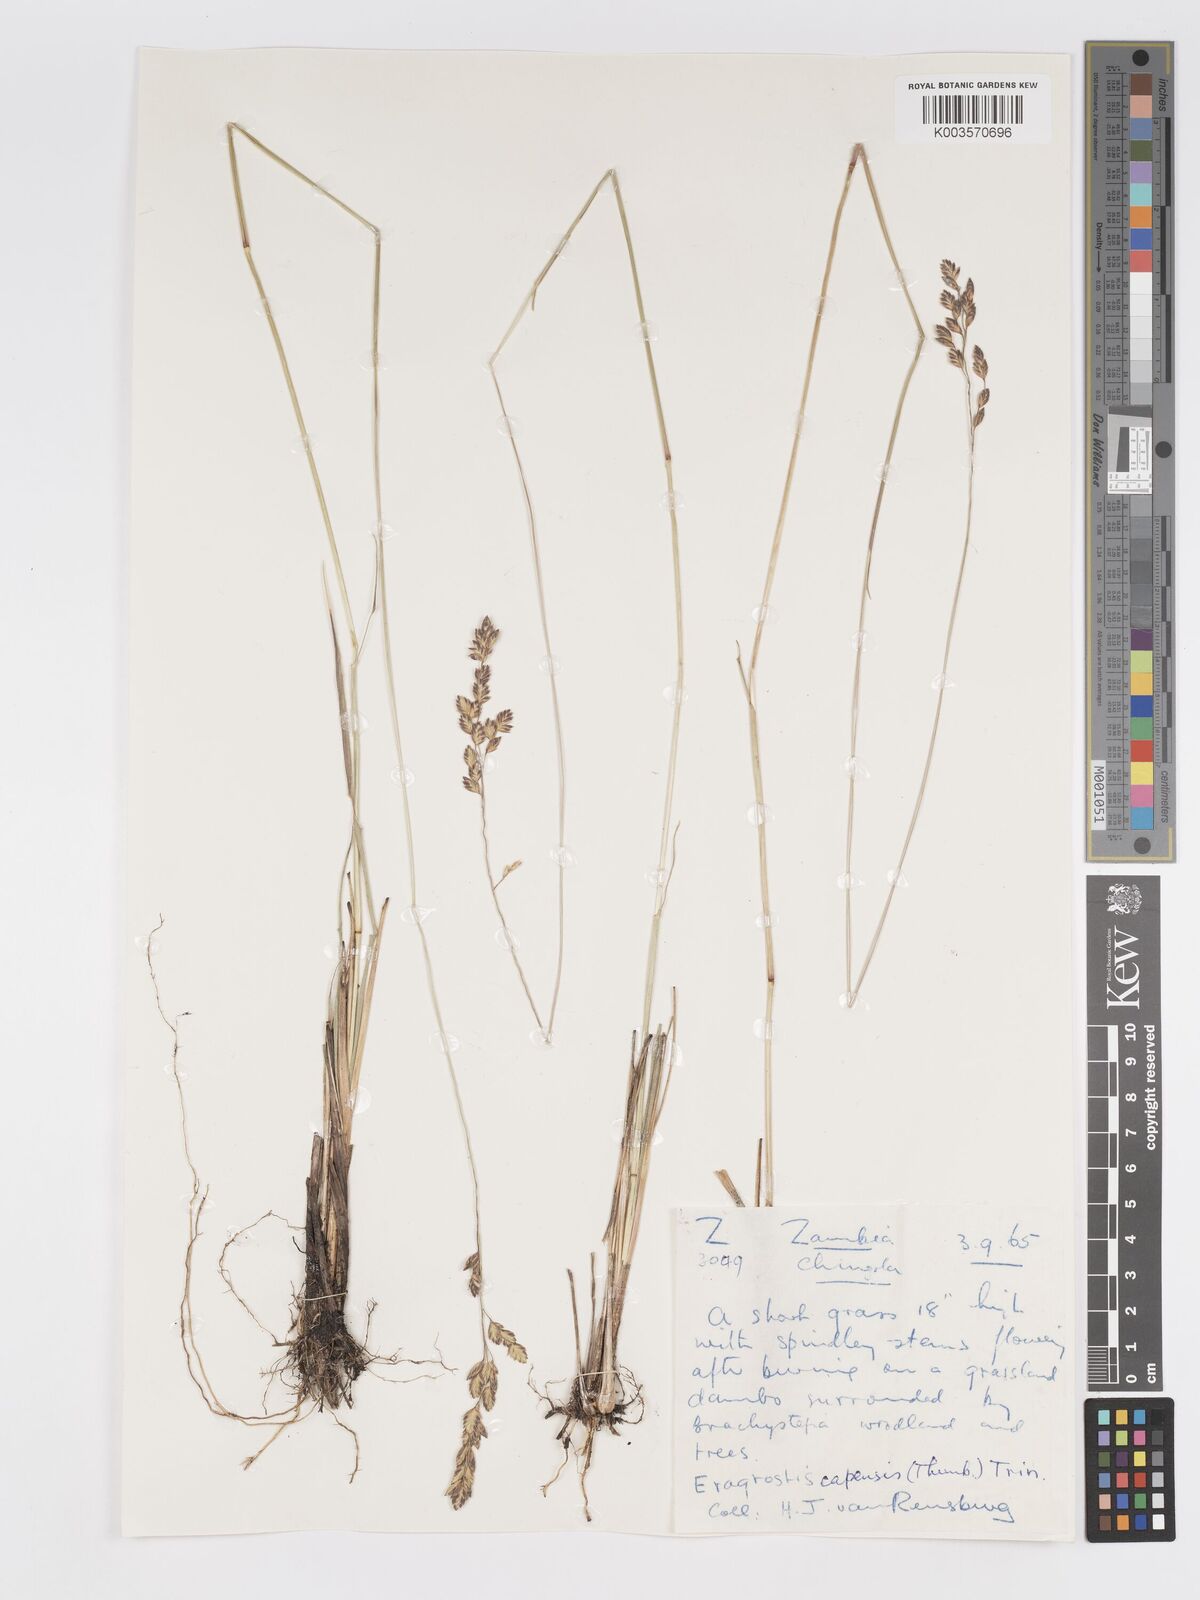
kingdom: Plantae
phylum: Tracheophyta
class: Liliopsida
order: Poales
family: Poaceae
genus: Eragrostis
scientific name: Eragrostis capensis
